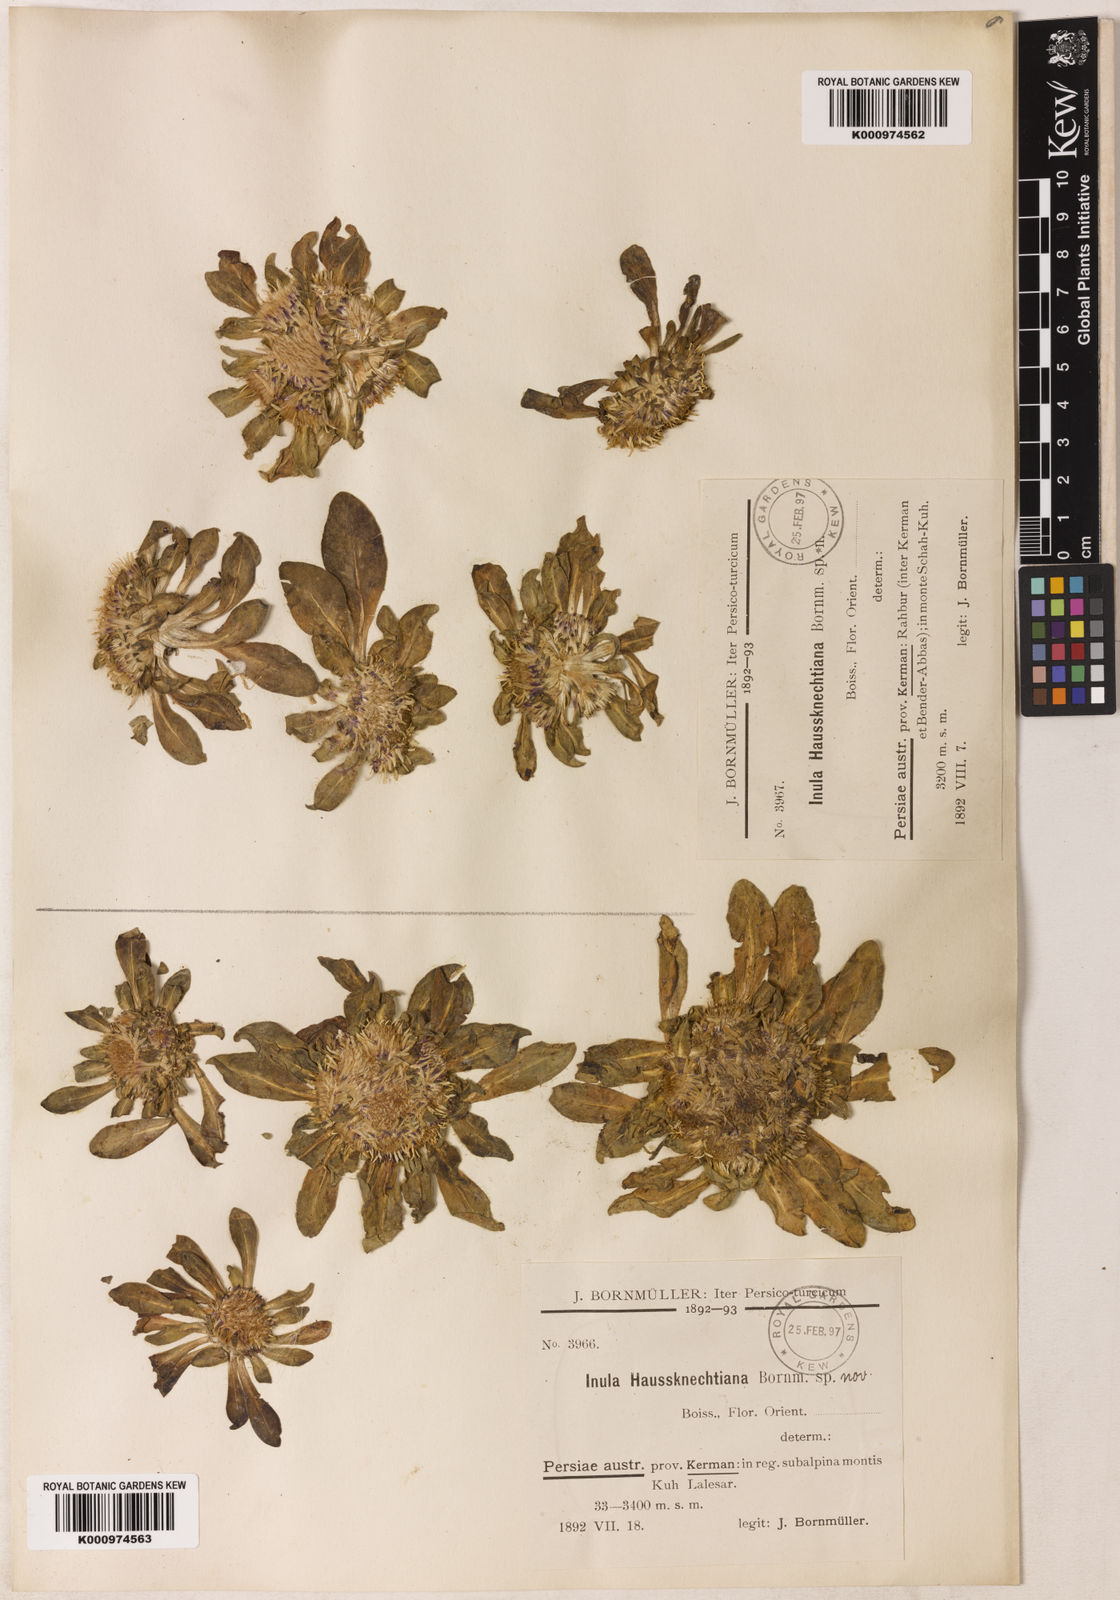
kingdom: Plantae
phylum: Tracheophyta
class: Magnoliopsida
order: Asterales
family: Asteraceae
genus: Inula
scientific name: Inula rhizocephala
